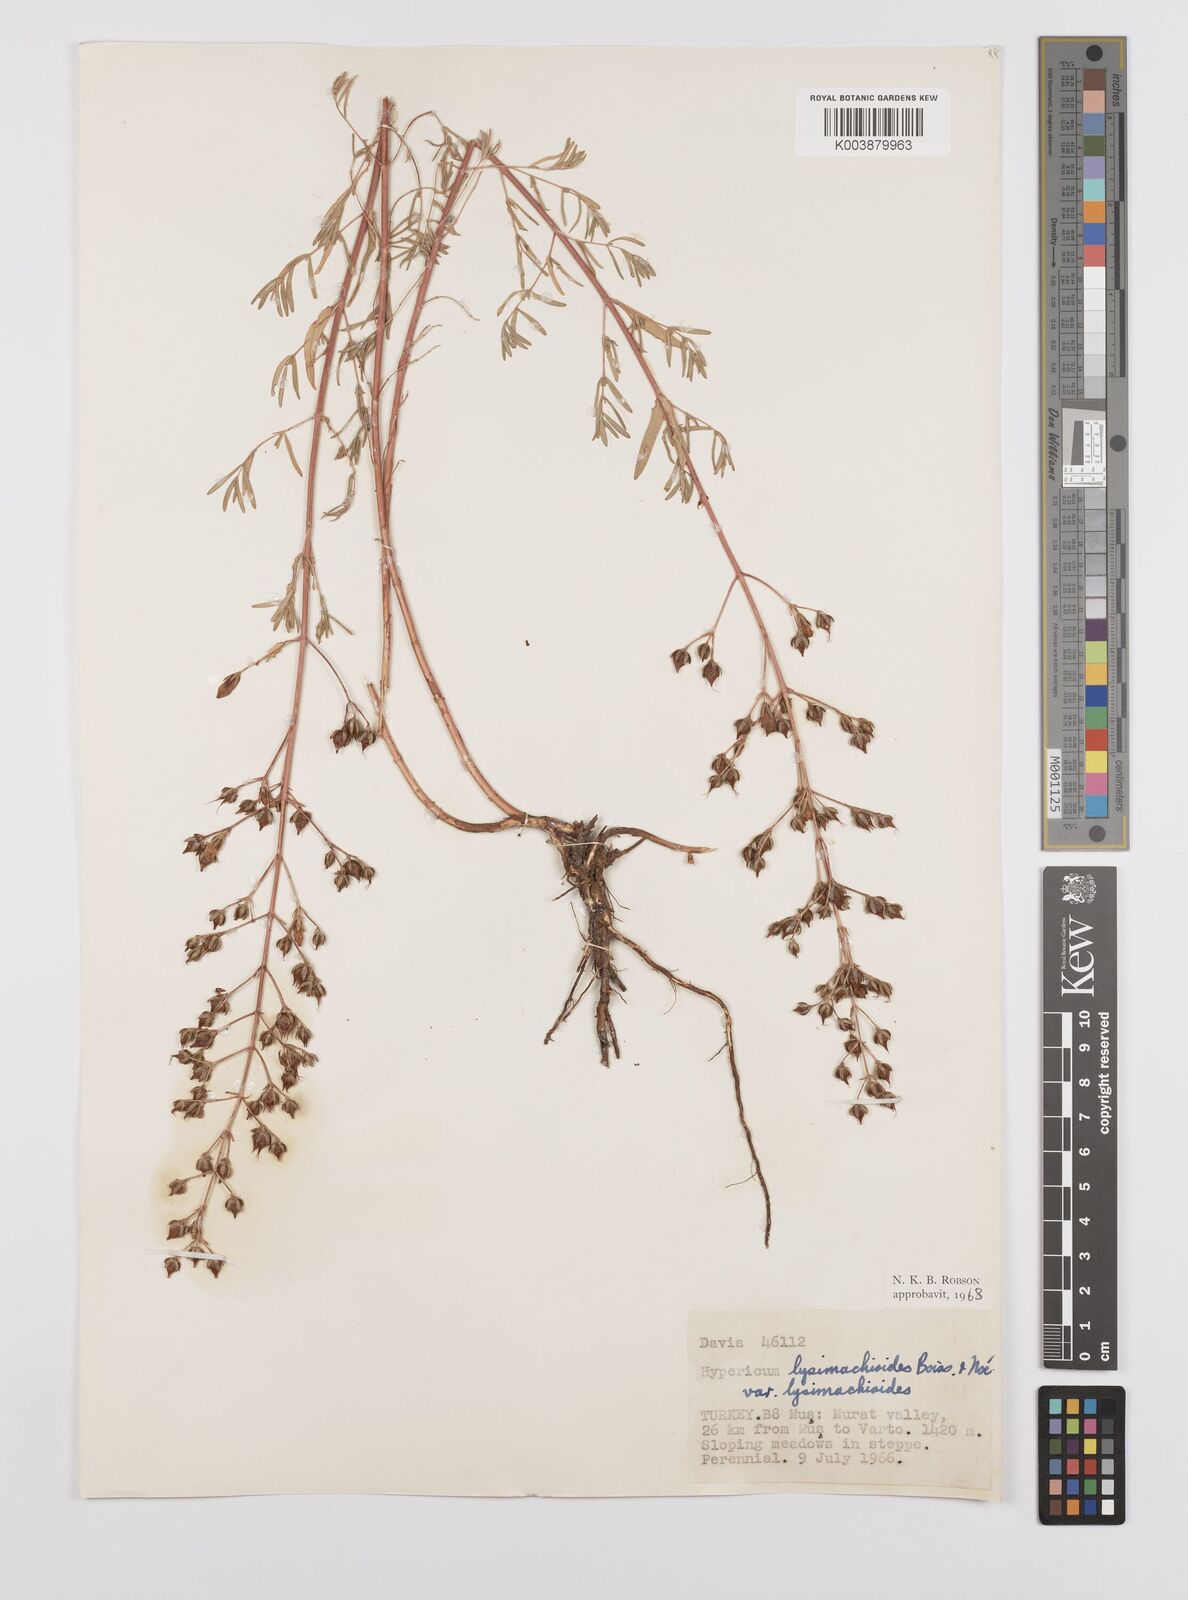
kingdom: Plantae
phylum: Tracheophyta
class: Magnoliopsida
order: Malpighiales
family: Hypericaceae
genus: Hypericum
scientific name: Hypericum lysimachioides
